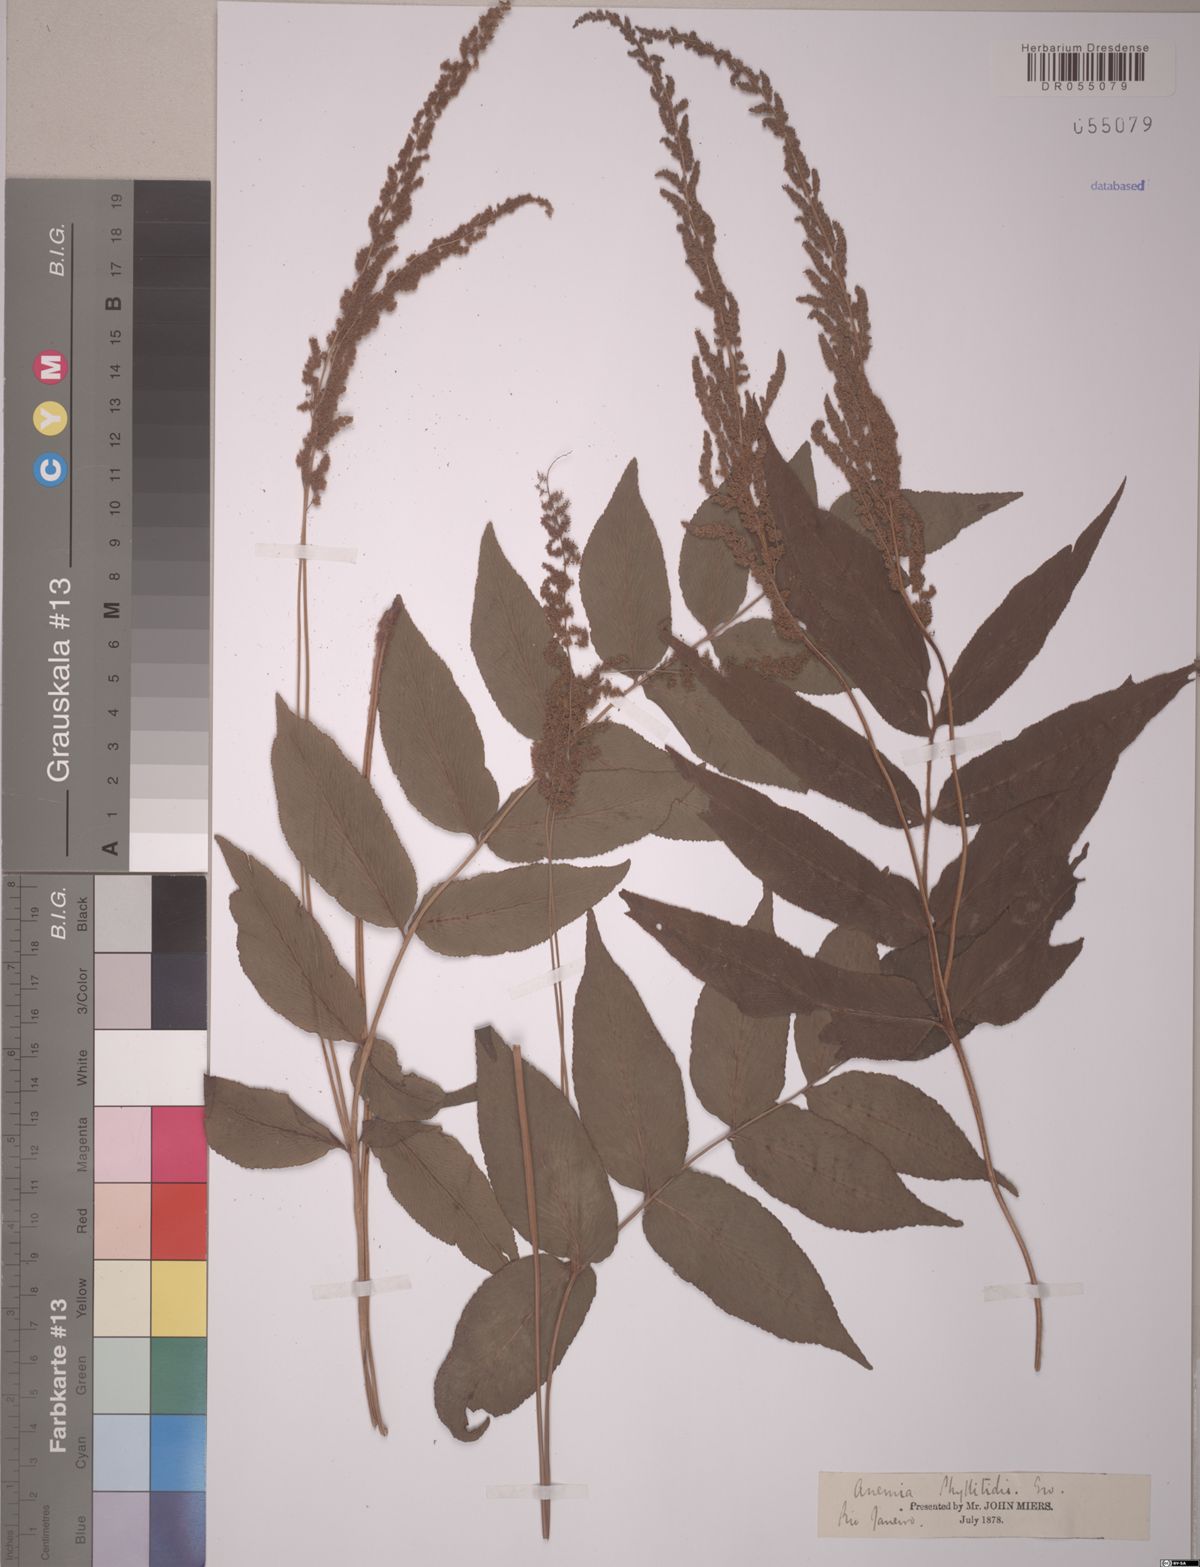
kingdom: Plantae
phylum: Tracheophyta
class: Polypodiopsida
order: Schizaeales
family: Anemiaceae
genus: Anemia
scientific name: Anemia phyllitidis
